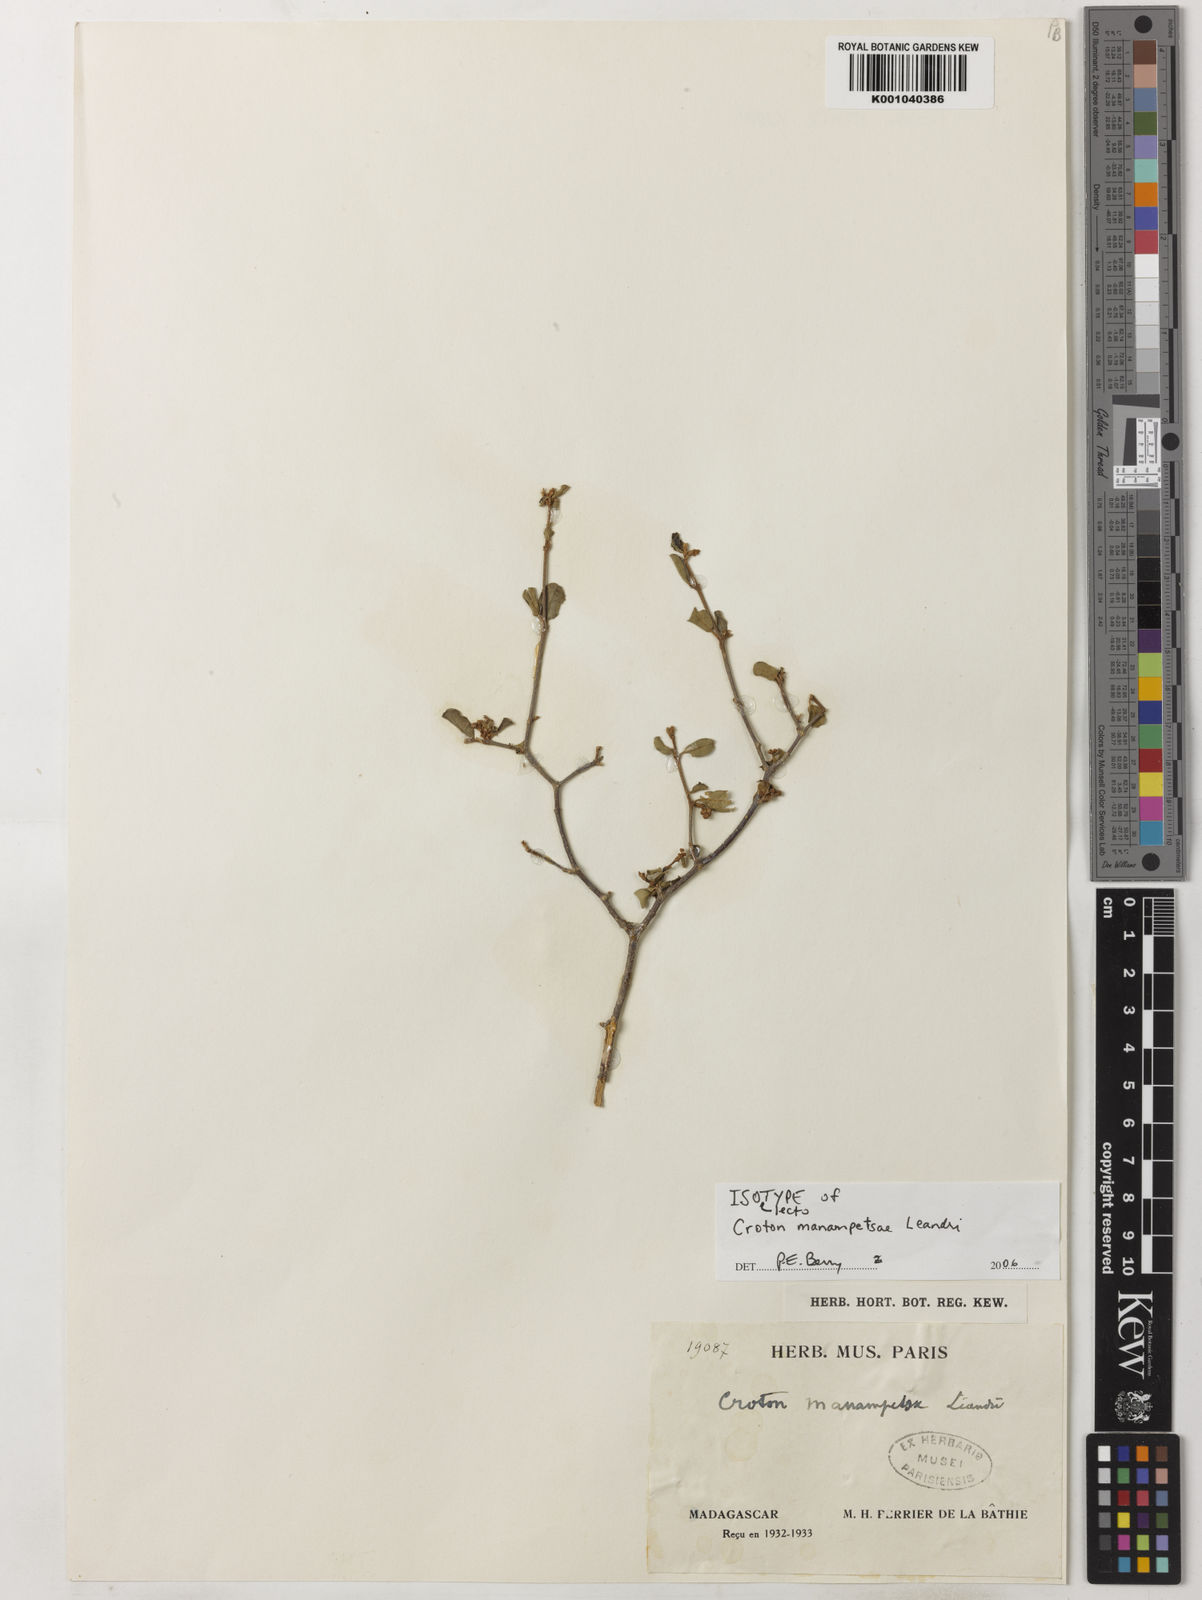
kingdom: Plantae
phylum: Tracheophyta
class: Magnoliopsida
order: Malpighiales
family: Euphorbiaceae
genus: Croton
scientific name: Croton manampetsae
